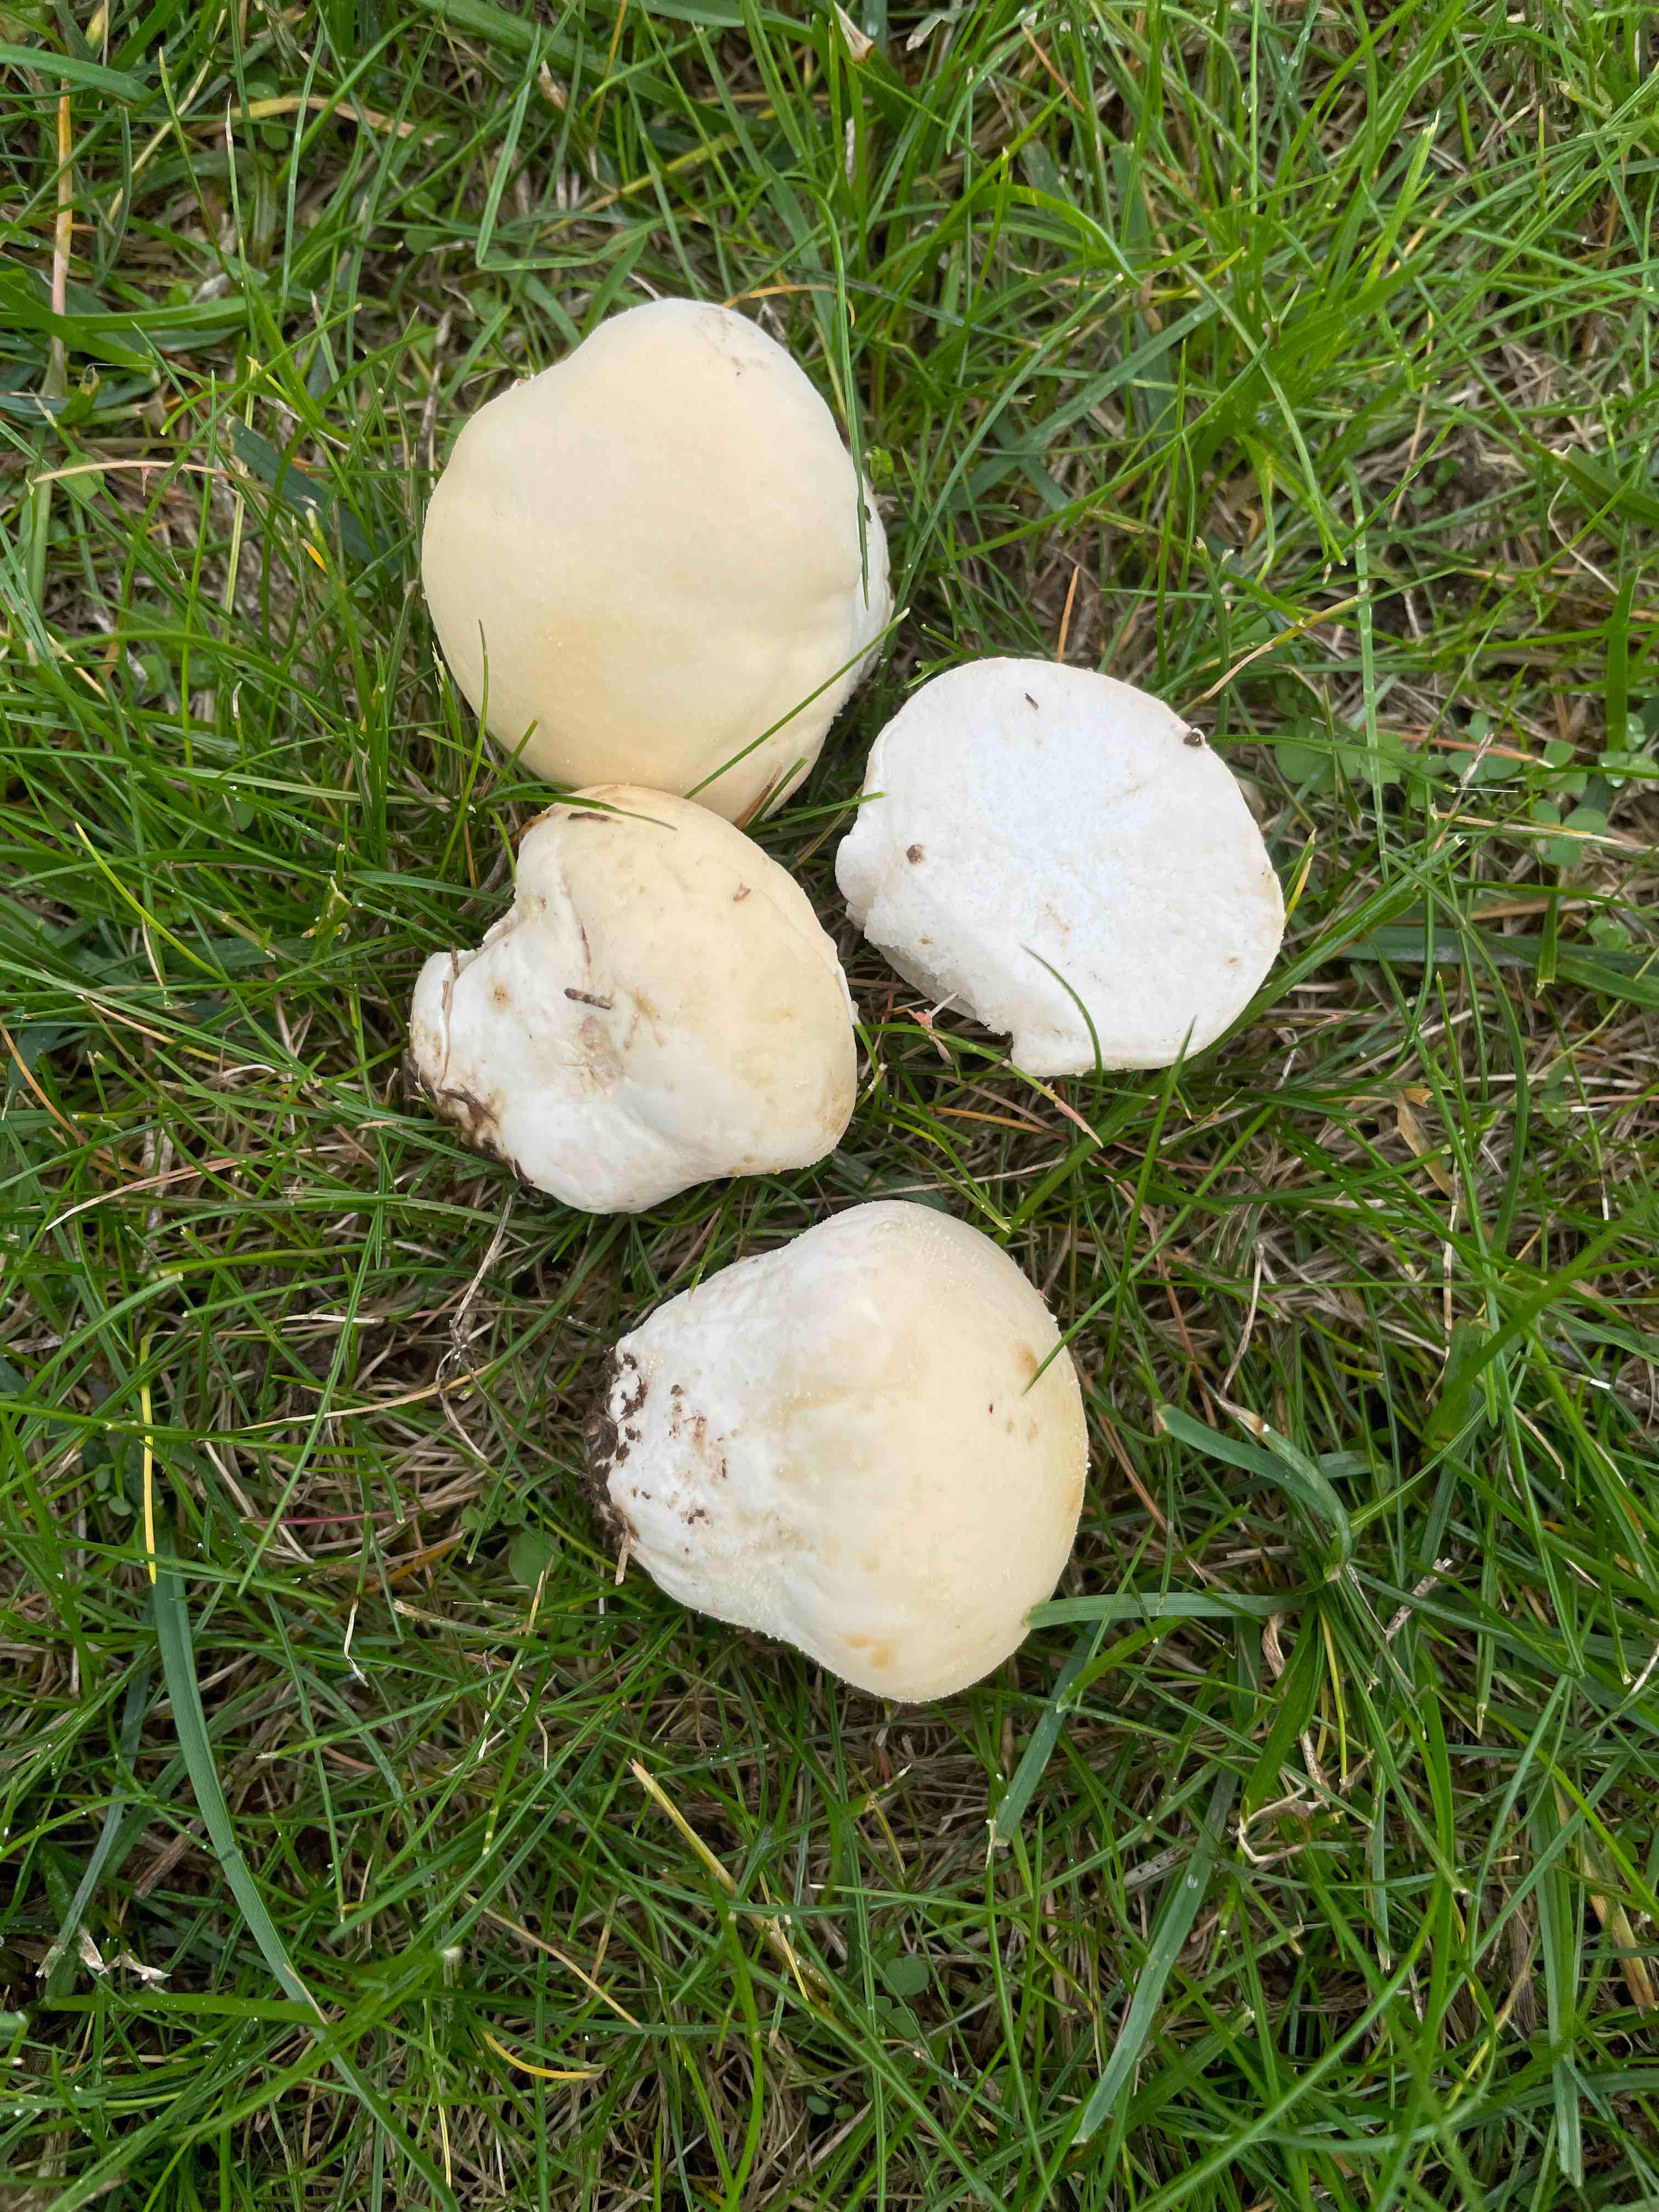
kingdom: Fungi
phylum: Basidiomycota
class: Agaricomycetes
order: Agaricales
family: Lycoperdaceae
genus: Lycoperdon
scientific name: Lycoperdon pratense
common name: flad støvbold
